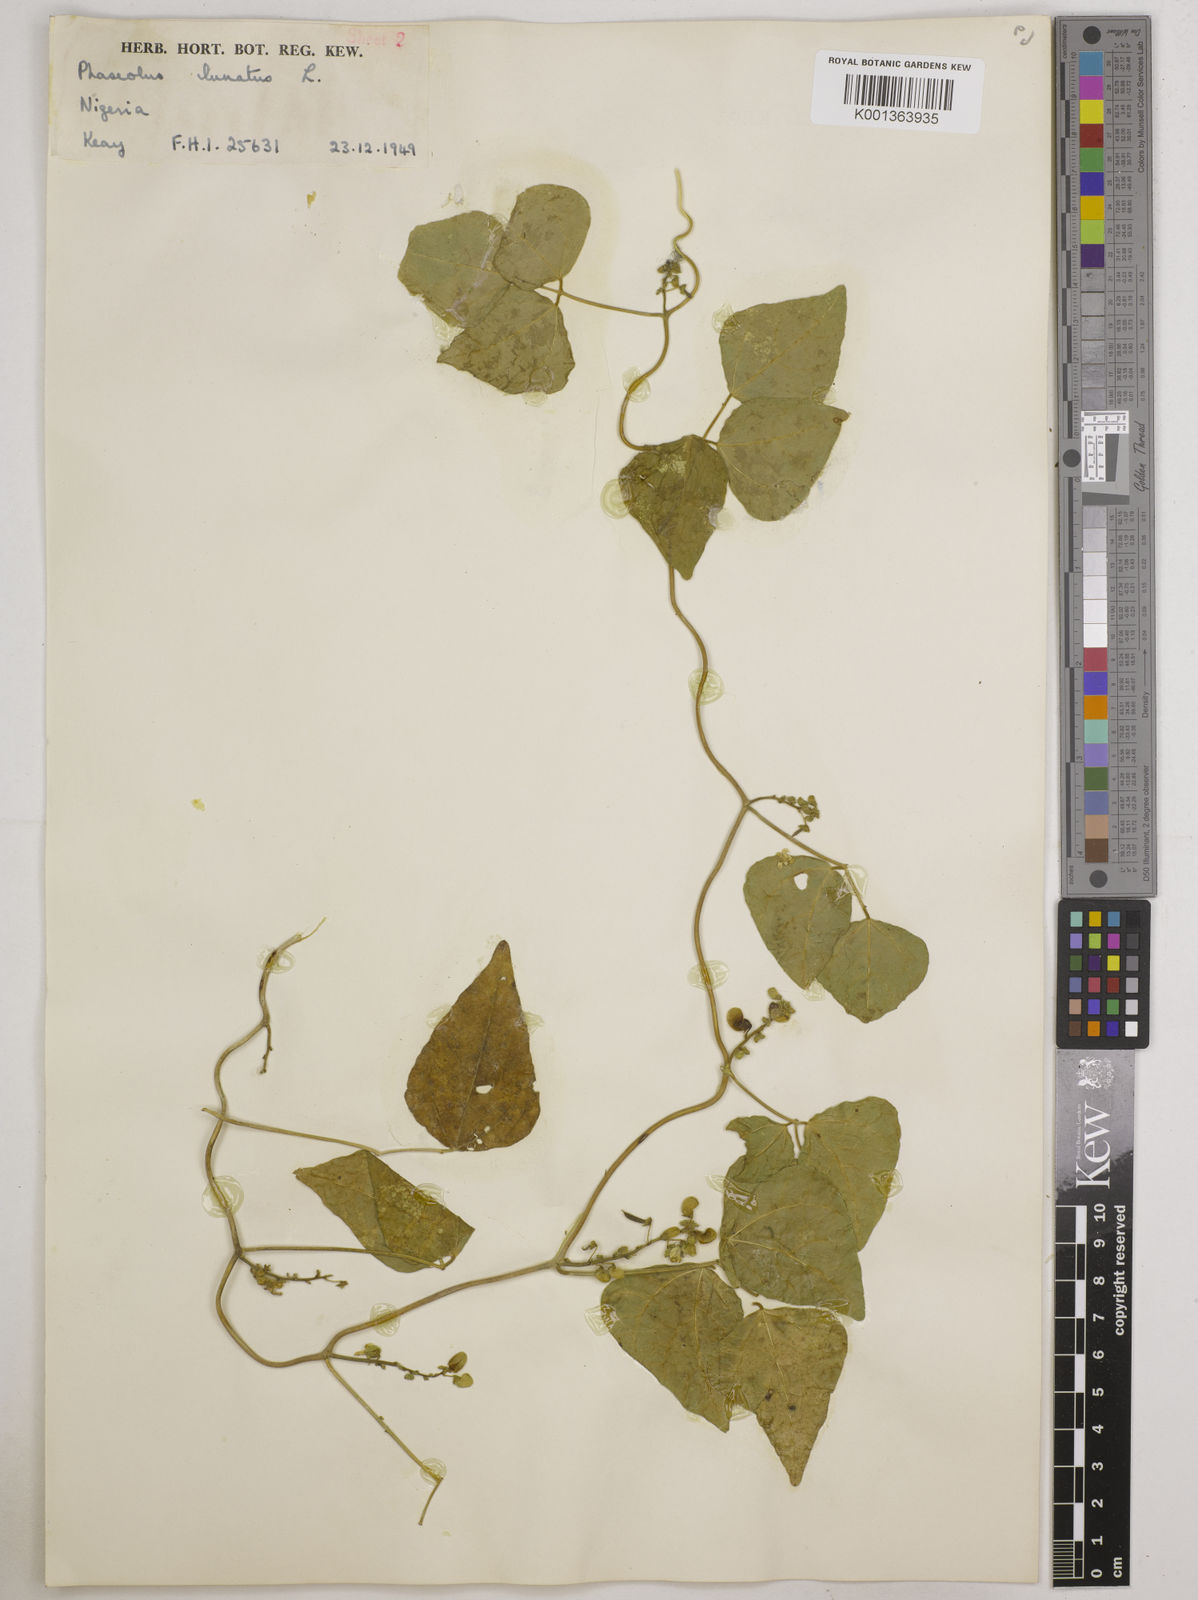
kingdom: Plantae
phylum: Tracheophyta
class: Magnoliopsida
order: Fabales
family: Fabaceae
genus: Phaseolus
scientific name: Phaseolus lunatus
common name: Sieva bean
